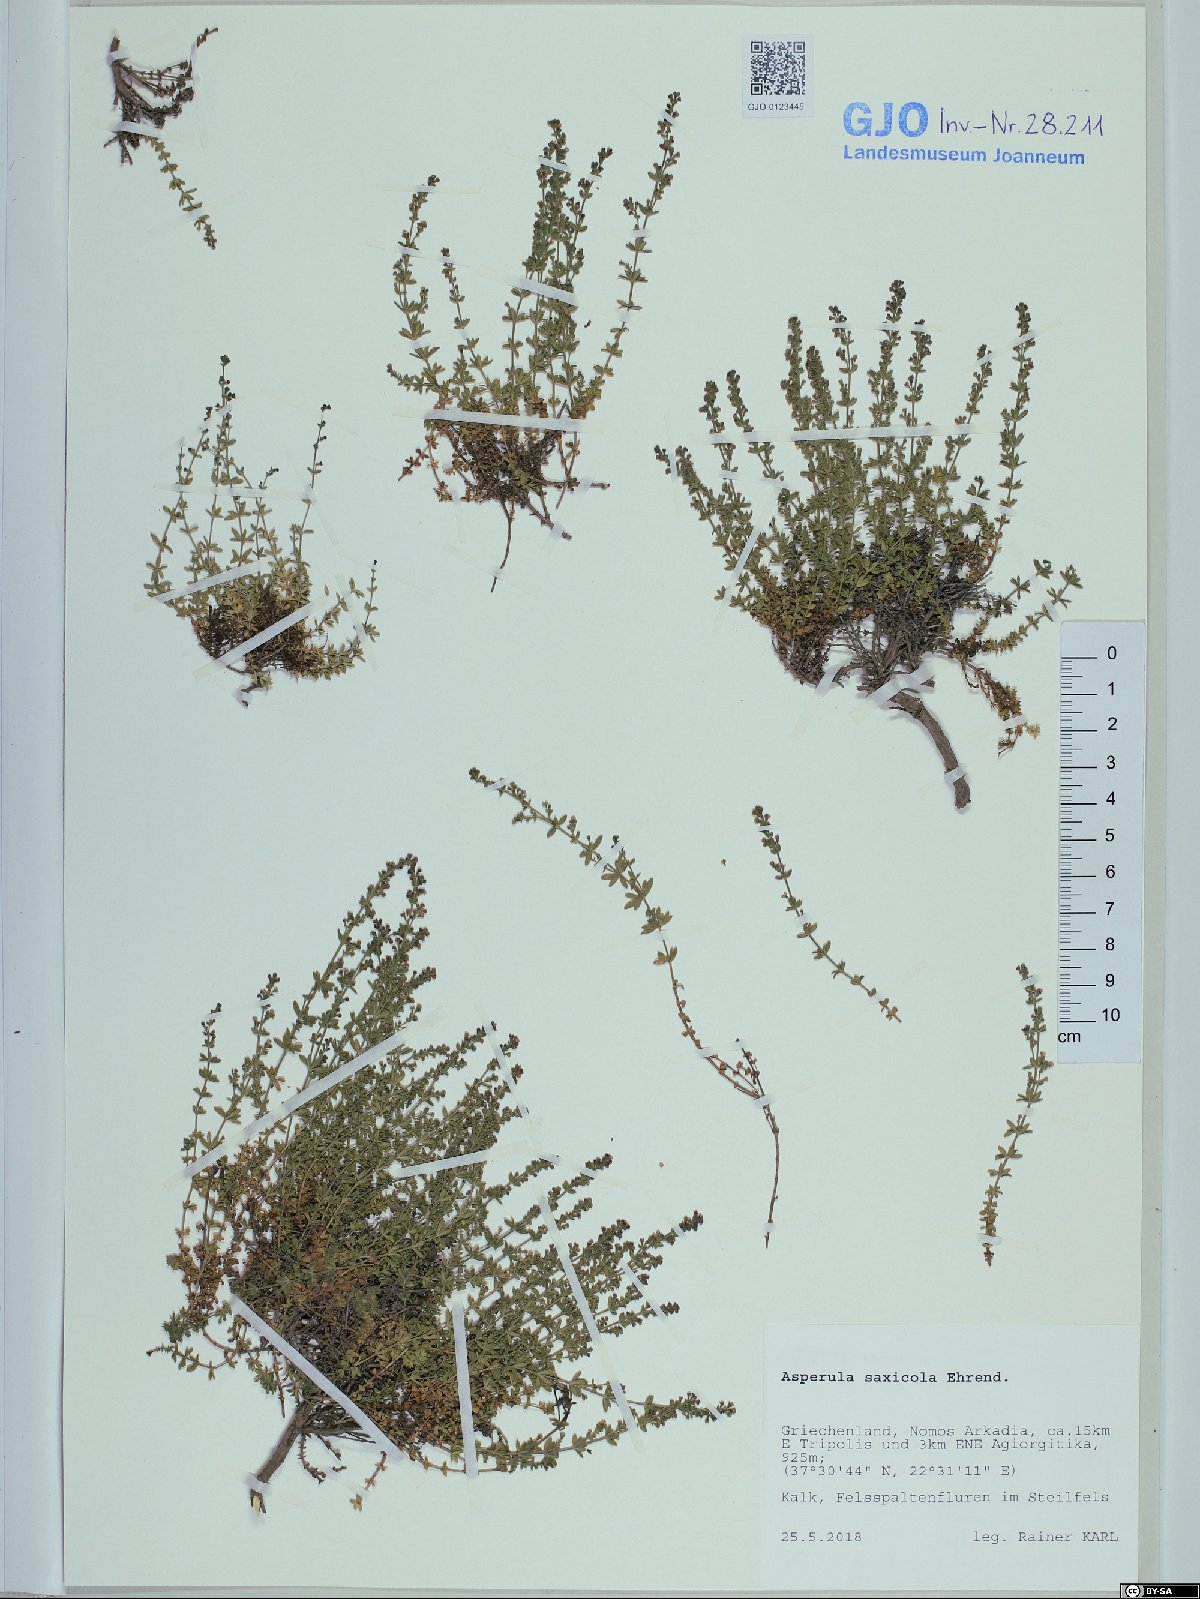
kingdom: Plantae
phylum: Tracheophyta
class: Magnoliopsida
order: Gentianales
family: Rubiaceae
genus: Thliphthisa
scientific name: Thliphthisa saxicola
